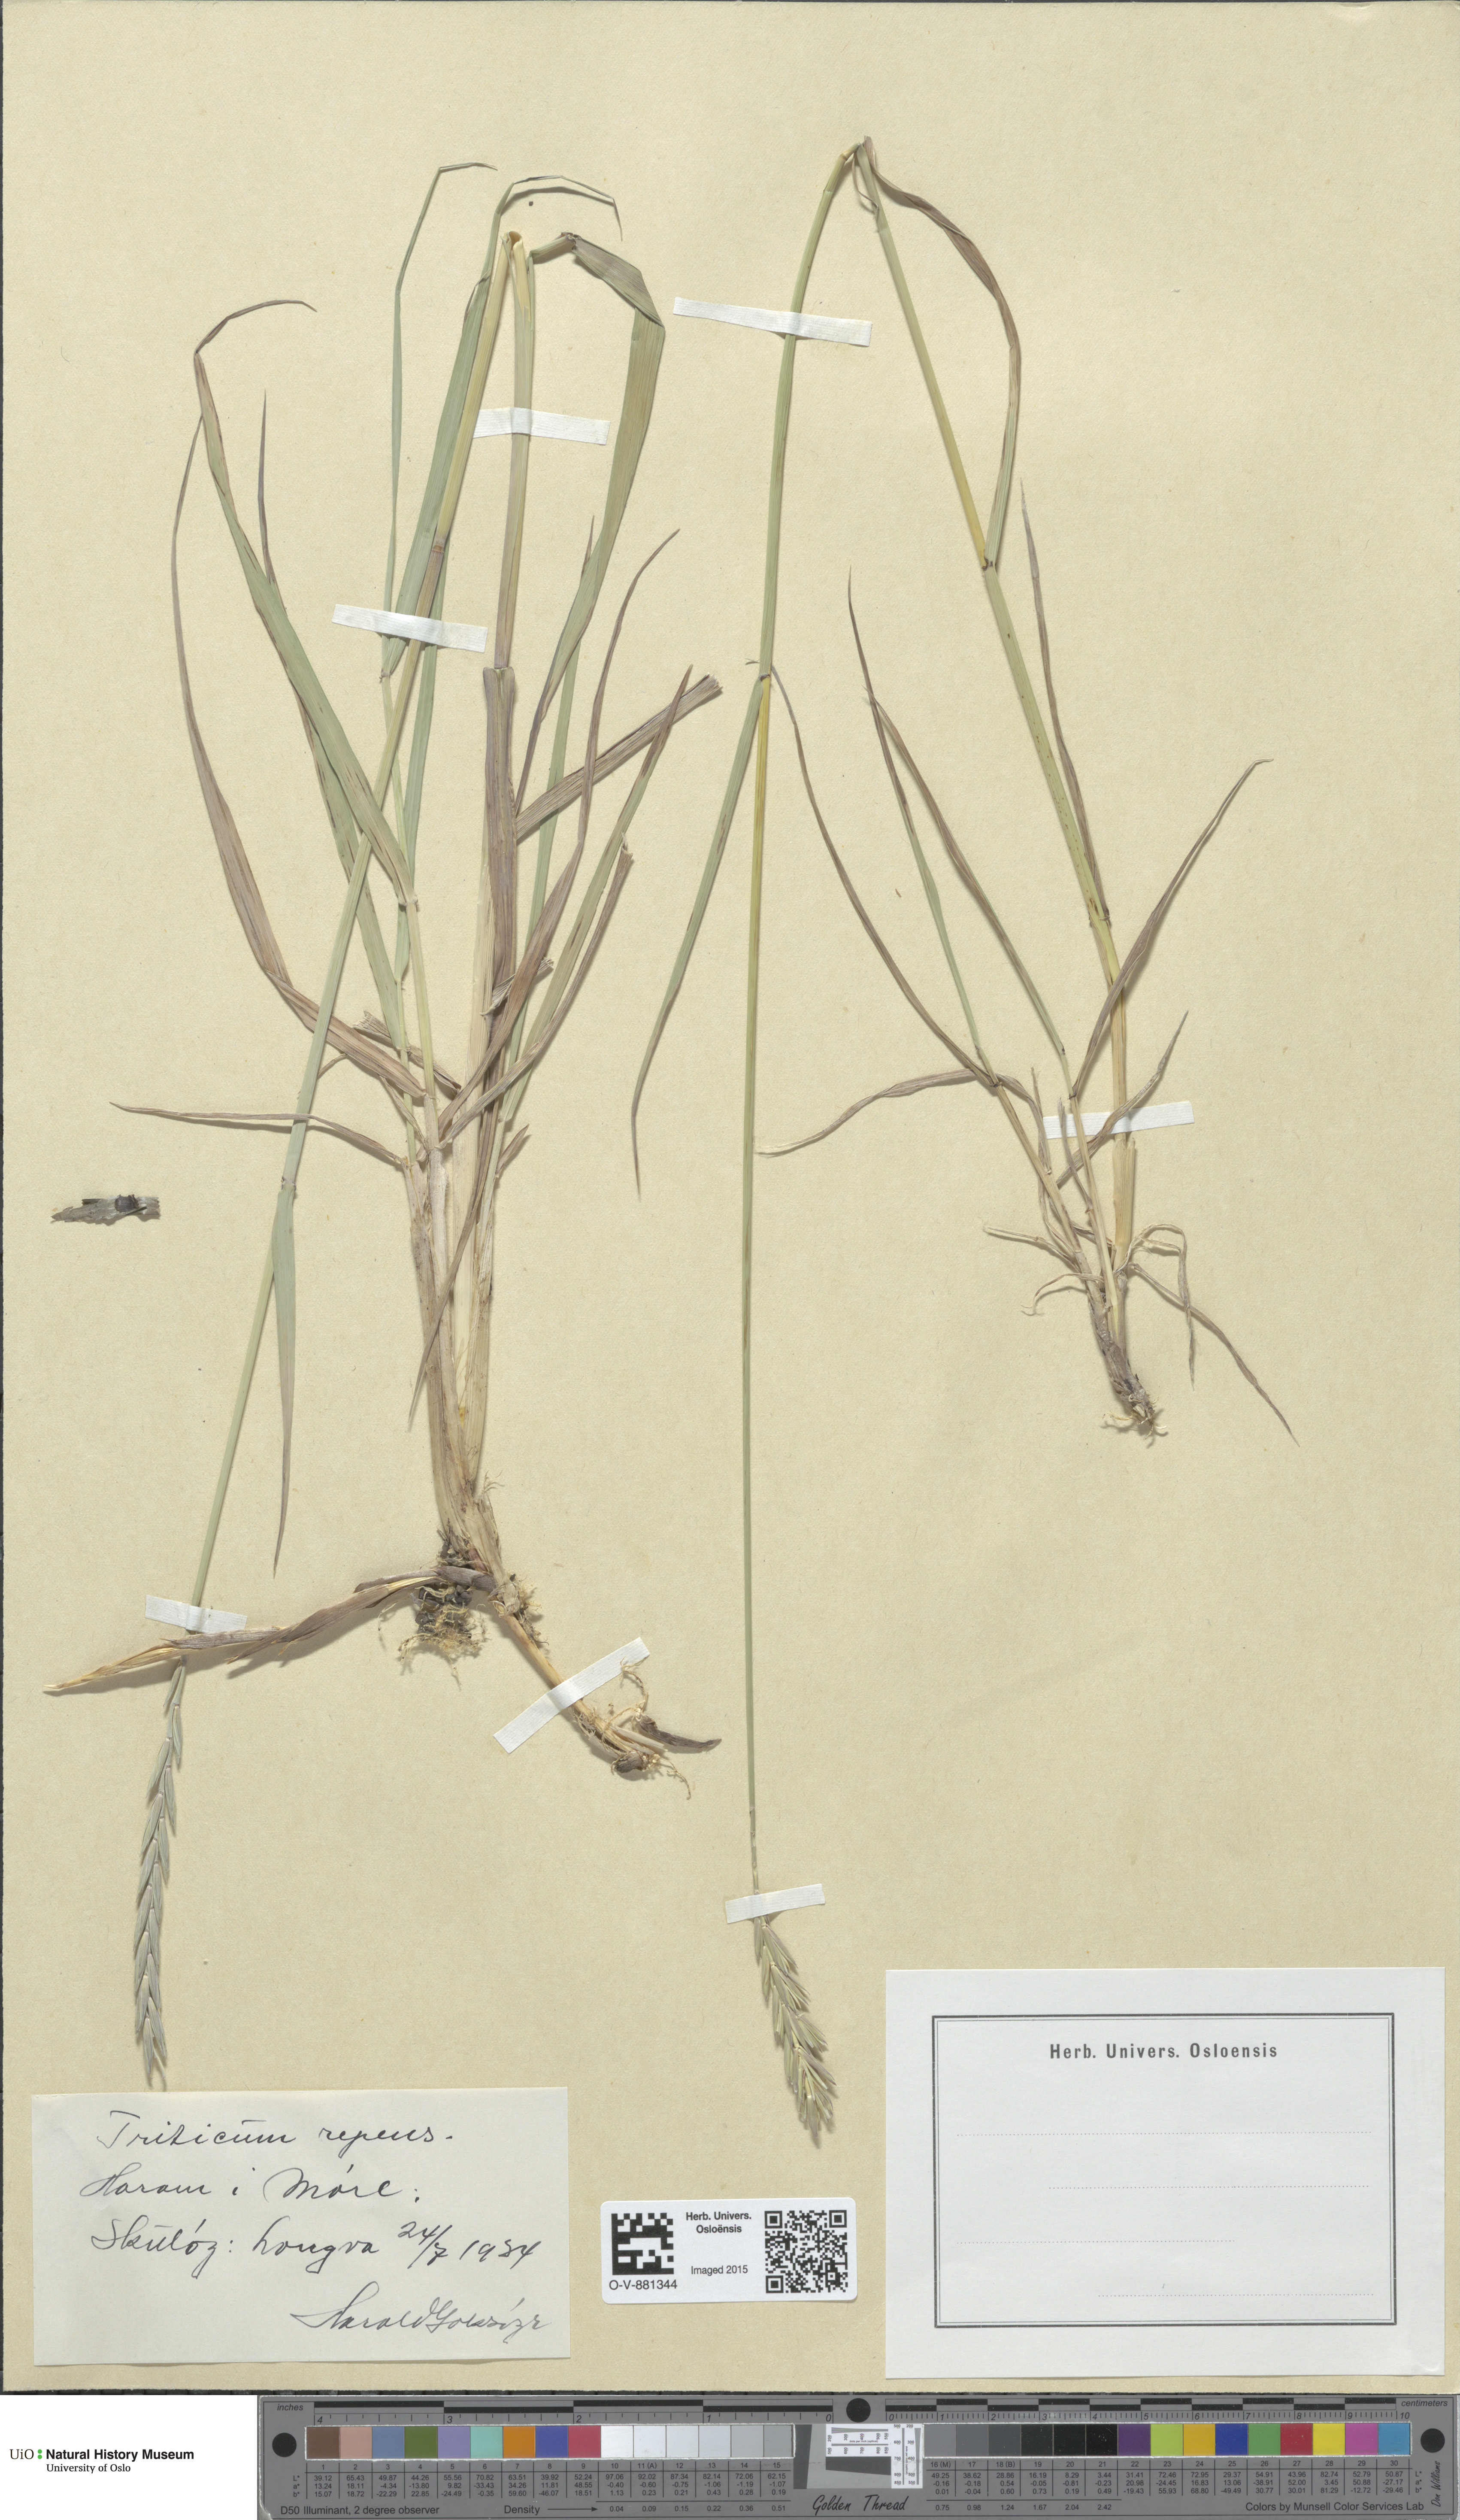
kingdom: Plantae
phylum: Tracheophyta
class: Liliopsida
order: Poales
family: Poaceae
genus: Elymus
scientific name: Elymus repens
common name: Quackgrass
